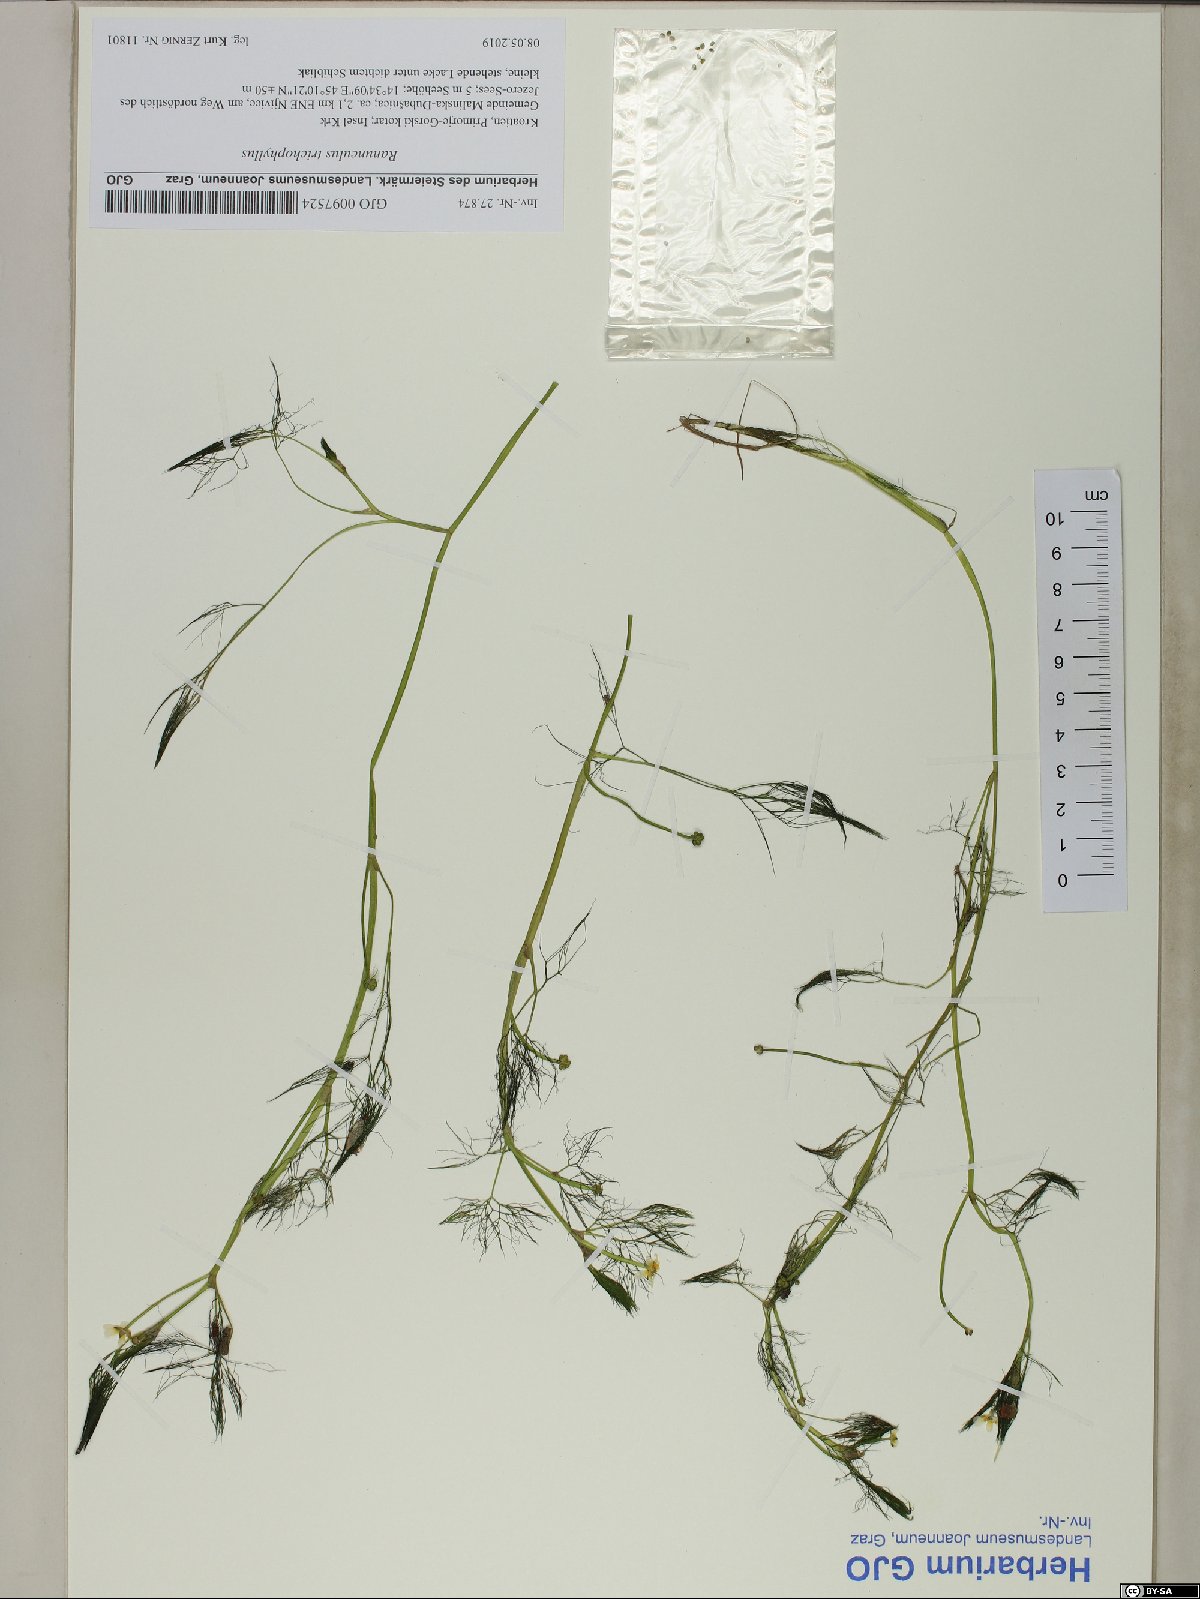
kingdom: Plantae
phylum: Tracheophyta
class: Magnoliopsida
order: Ranunculales
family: Ranunculaceae
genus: Ranunculus
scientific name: Ranunculus trichophyllus
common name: Thread-leaved water-crowfoot
